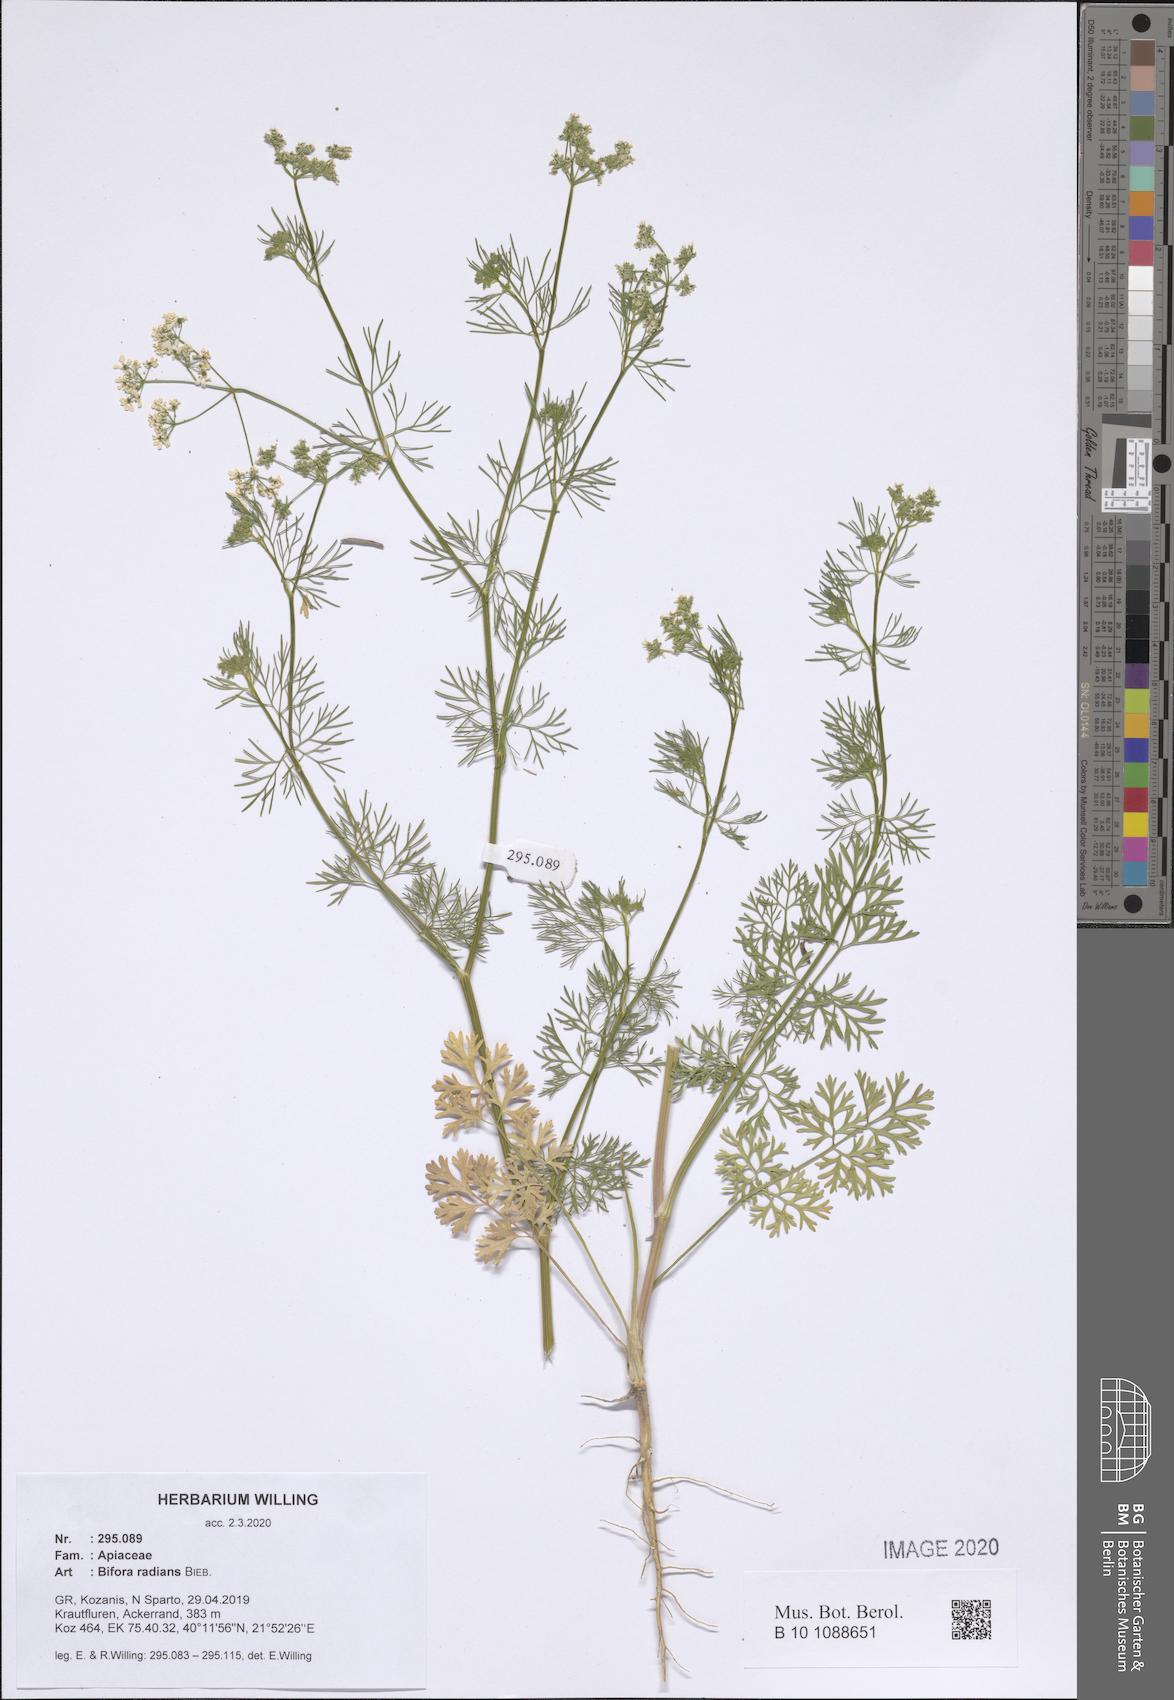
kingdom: Plantae
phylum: Tracheophyta
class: Magnoliopsida
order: Apiales
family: Apiaceae
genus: Bifora
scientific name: Bifora radians
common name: Wild bishop
